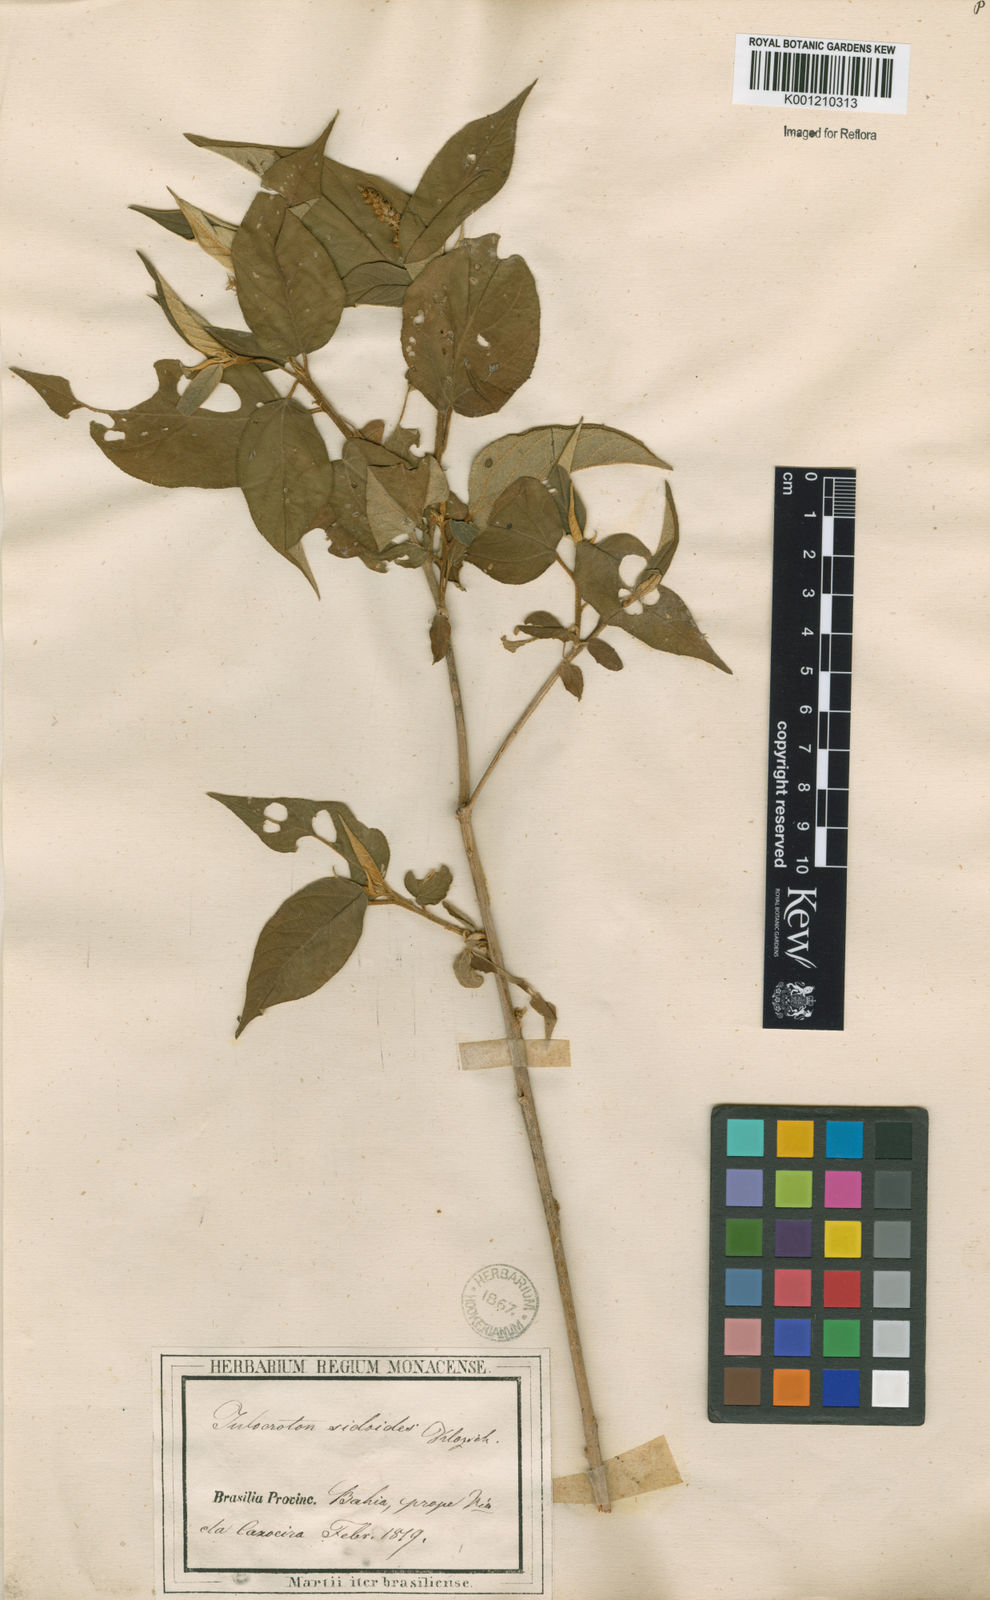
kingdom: Plantae
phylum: Tracheophyta
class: Magnoliopsida
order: Malpighiales
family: Euphorbiaceae
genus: Croton
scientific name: Croton triqueter
